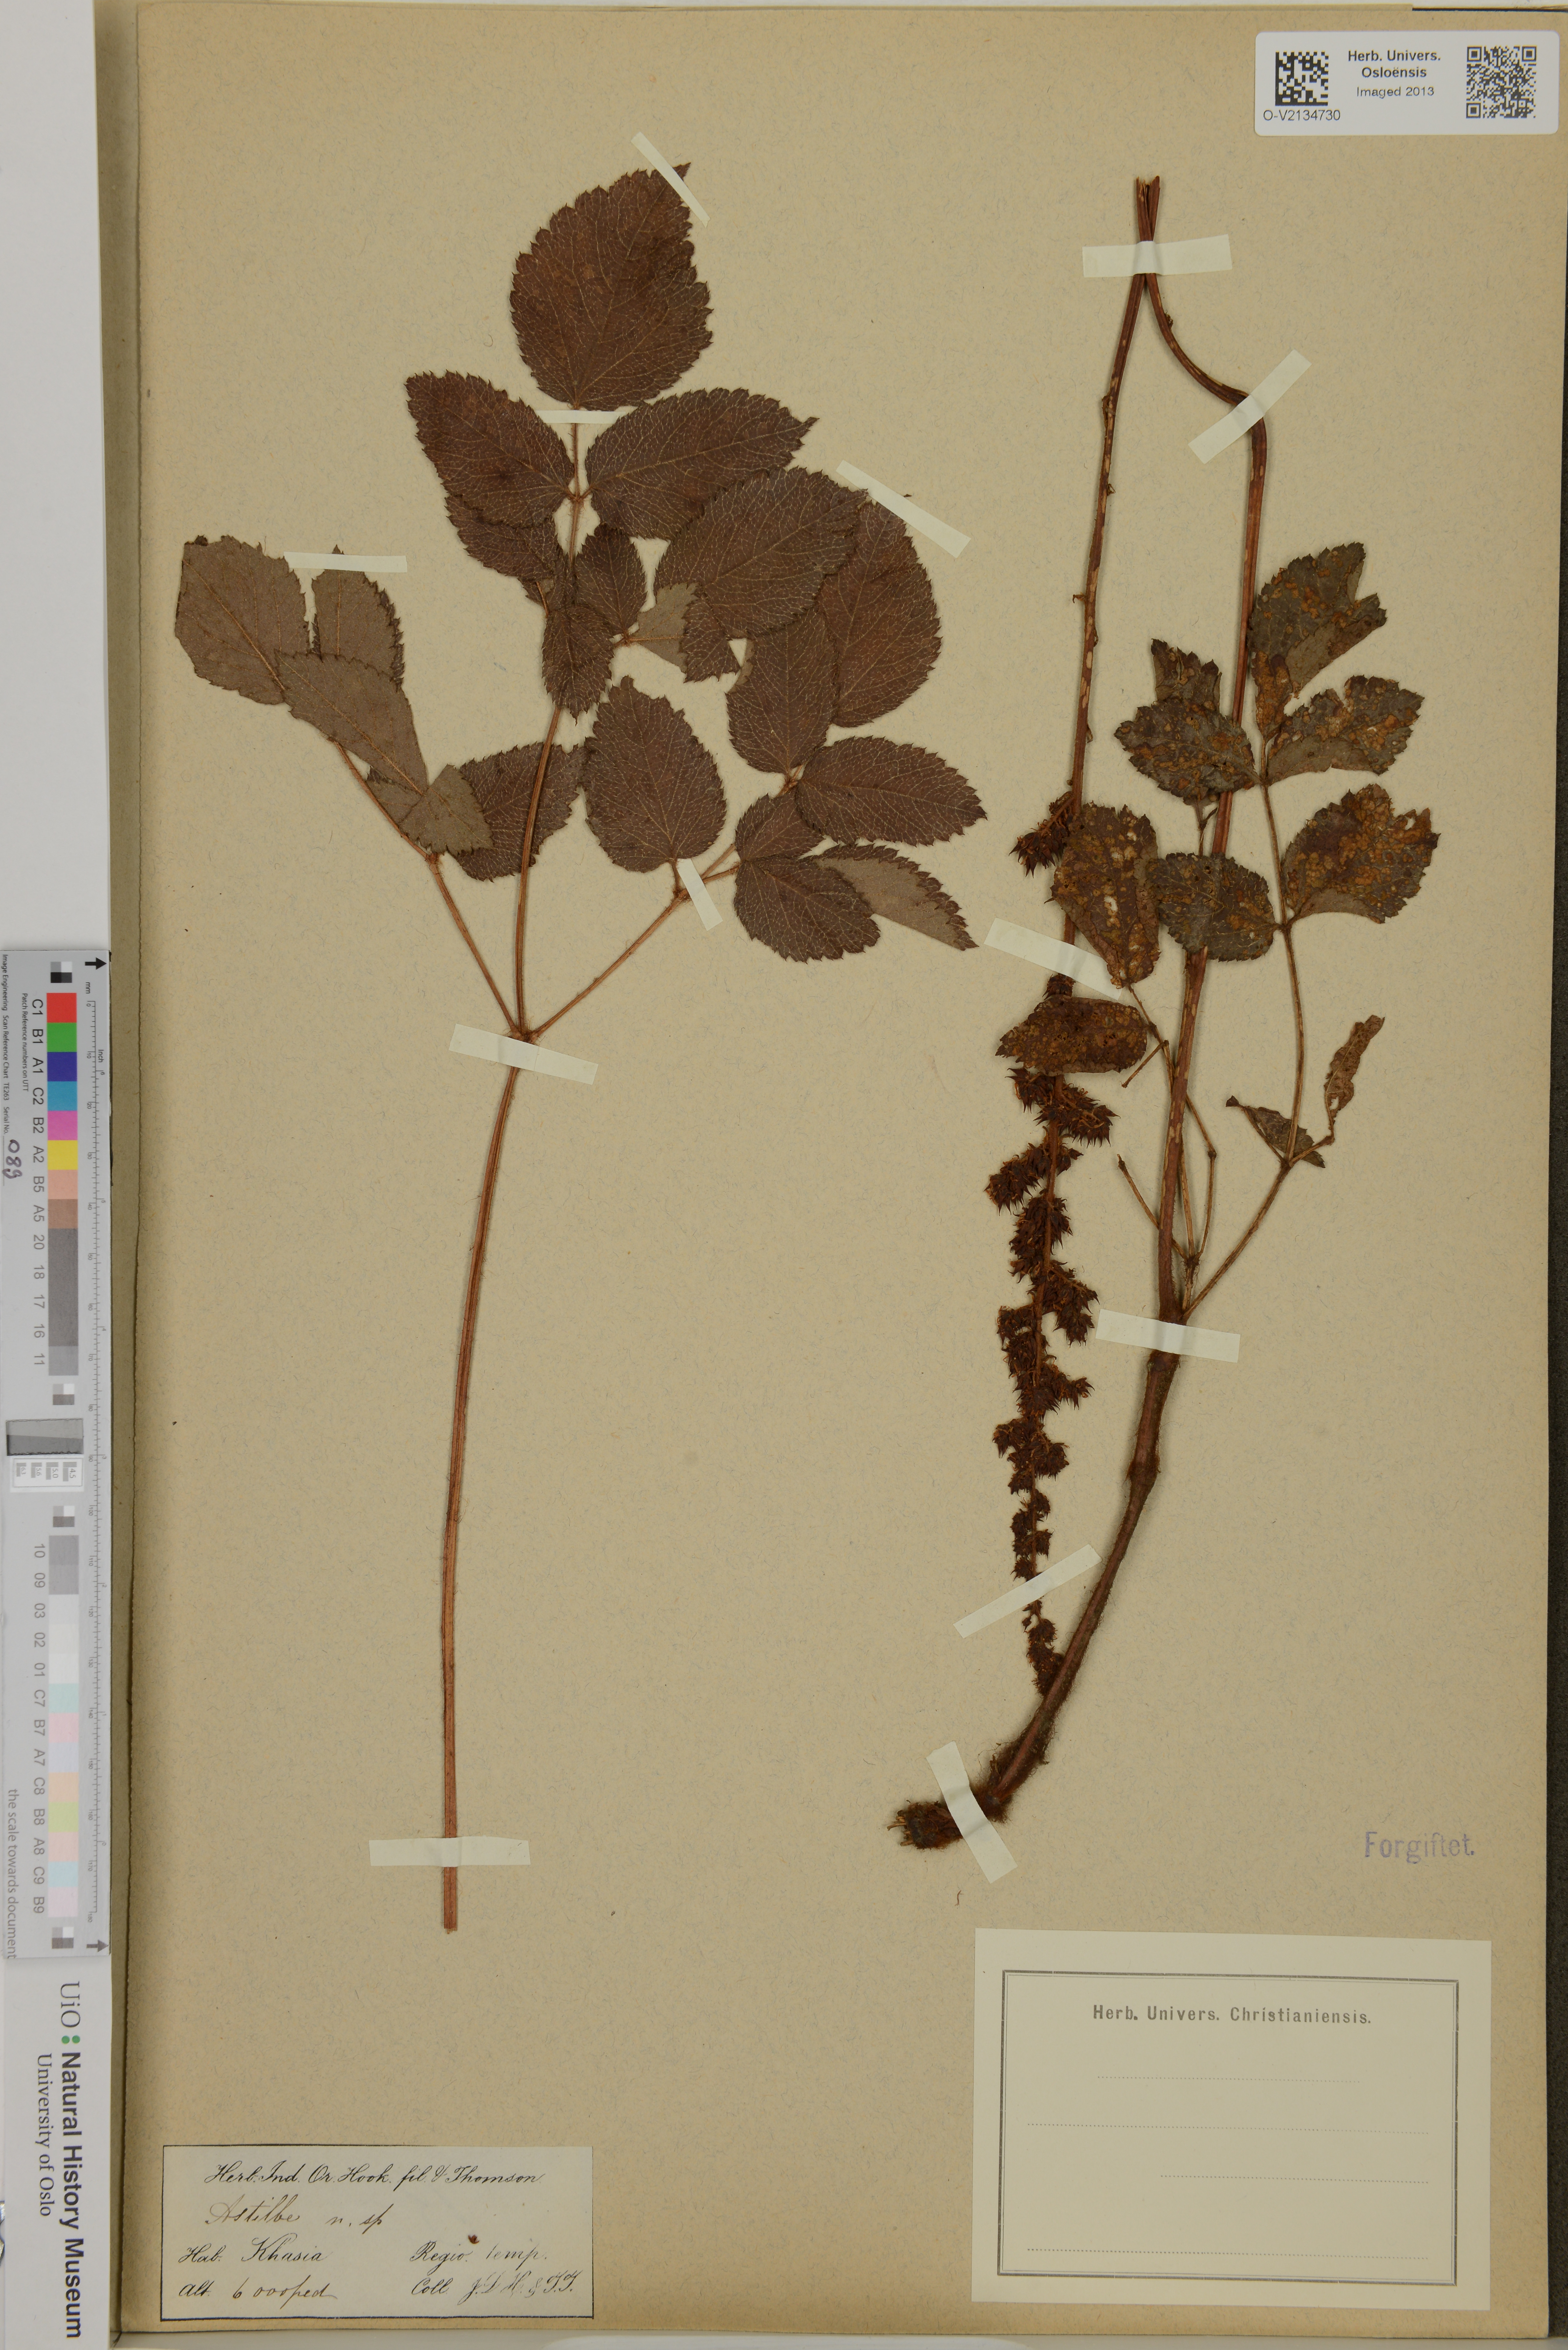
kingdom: Plantae
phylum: Tracheophyta
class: Magnoliopsida
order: Saxifragales
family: Saxifragaceae
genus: Astilbe
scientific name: Astilbe
